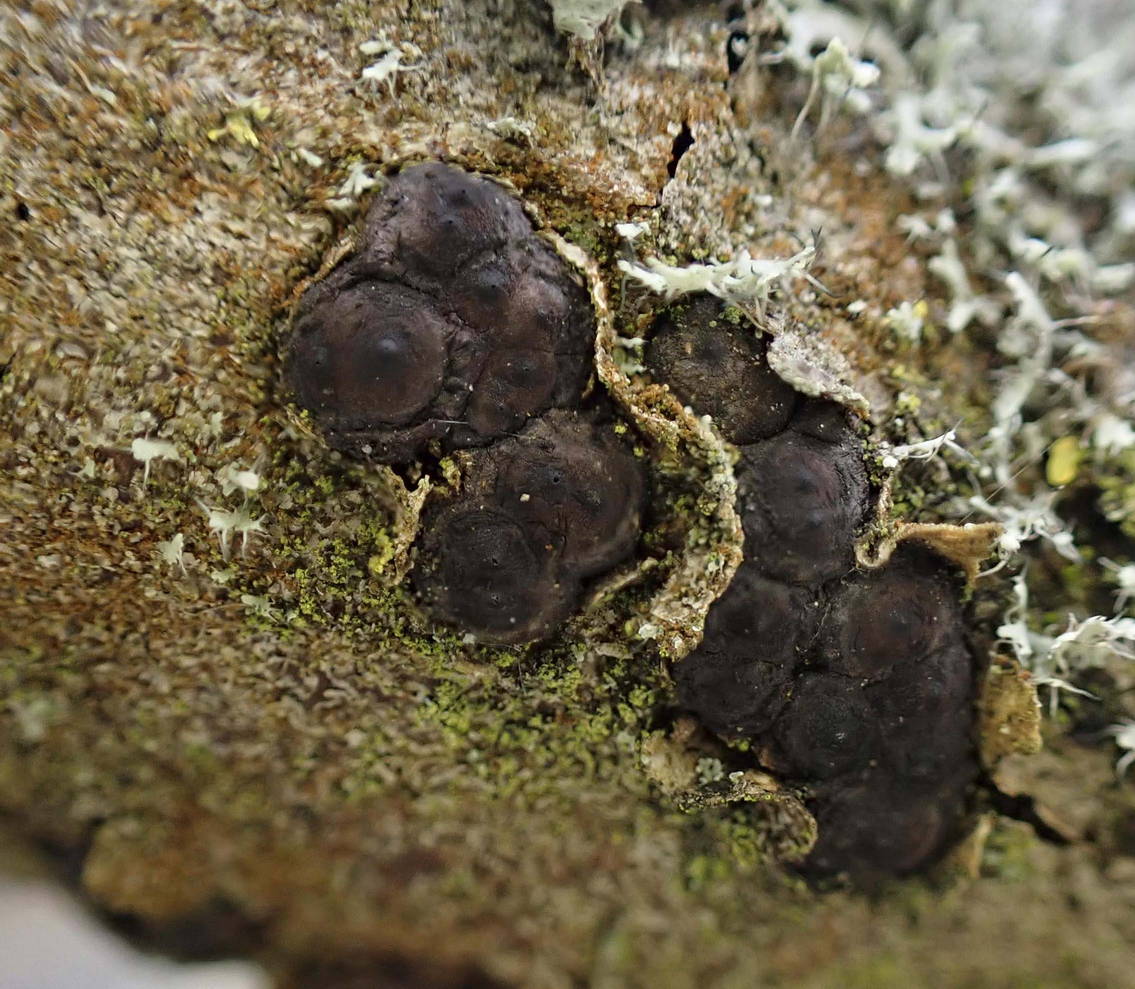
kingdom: Fungi
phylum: Ascomycota
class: Sordariomycetes
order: Xylariales
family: Xylariaceae
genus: Entoleuca
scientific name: Entoleuca mammata
